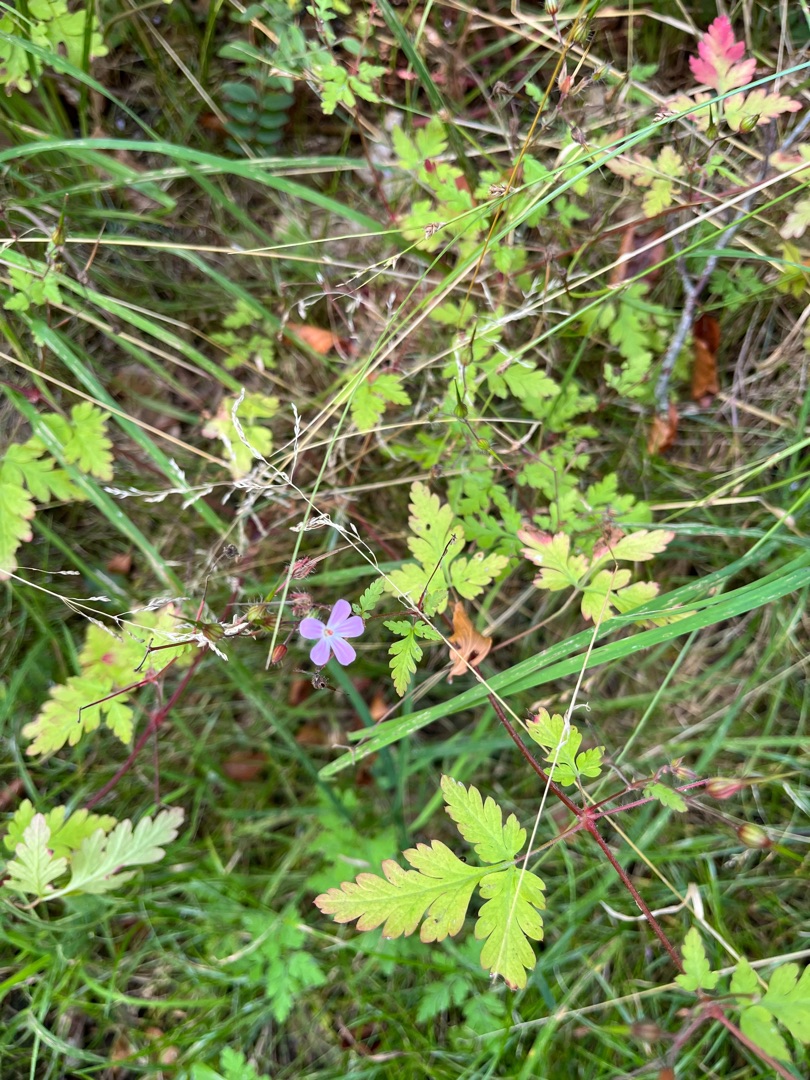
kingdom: Plantae
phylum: Tracheophyta
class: Magnoliopsida
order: Geraniales
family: Geraniaceae
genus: Geranium
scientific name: Geranium robertianum
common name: Stinkende storkenæb
